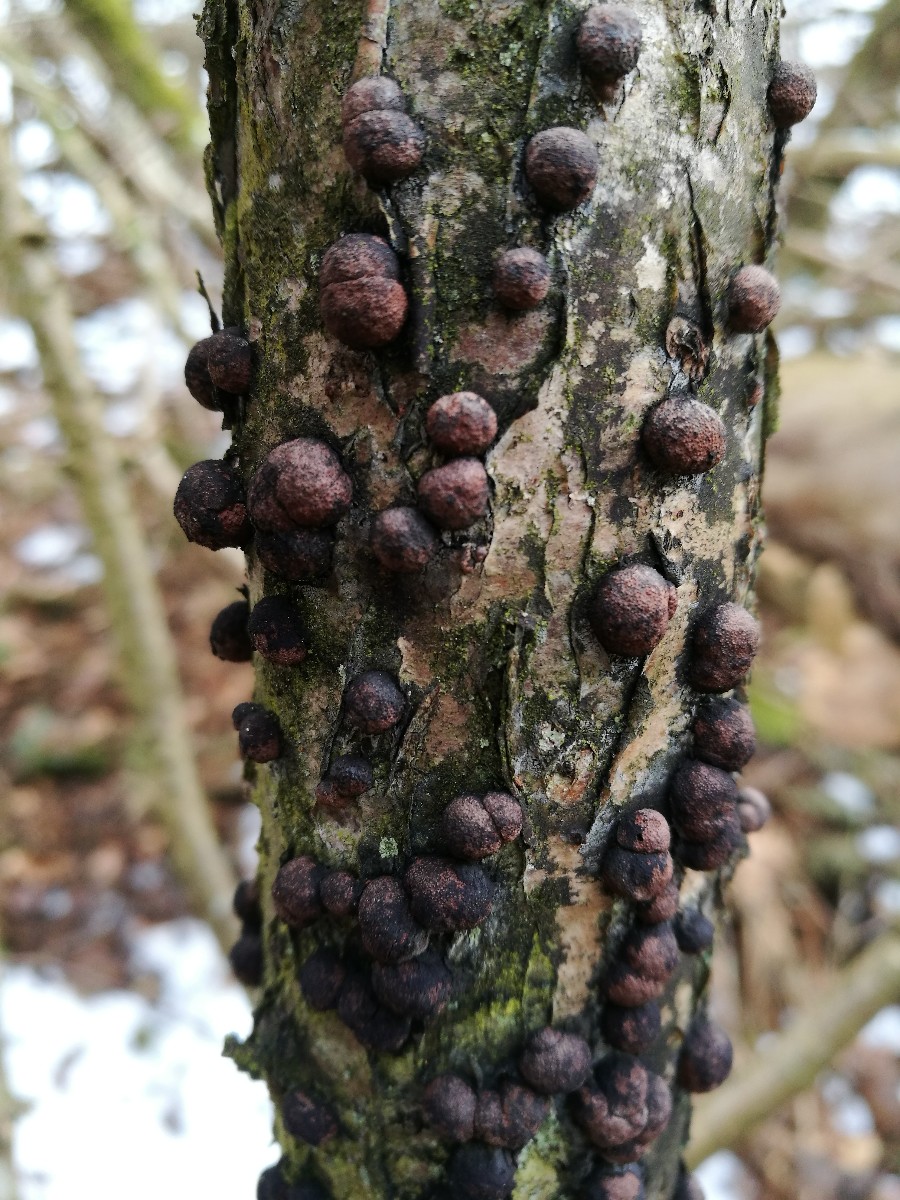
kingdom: Fungi
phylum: Ascomycota
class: Sordariomycetes
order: Xylariales
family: Hypoxylaceae
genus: Hypoxylon
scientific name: Hypoxylon howeanum
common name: halvkugleformet kulbær
